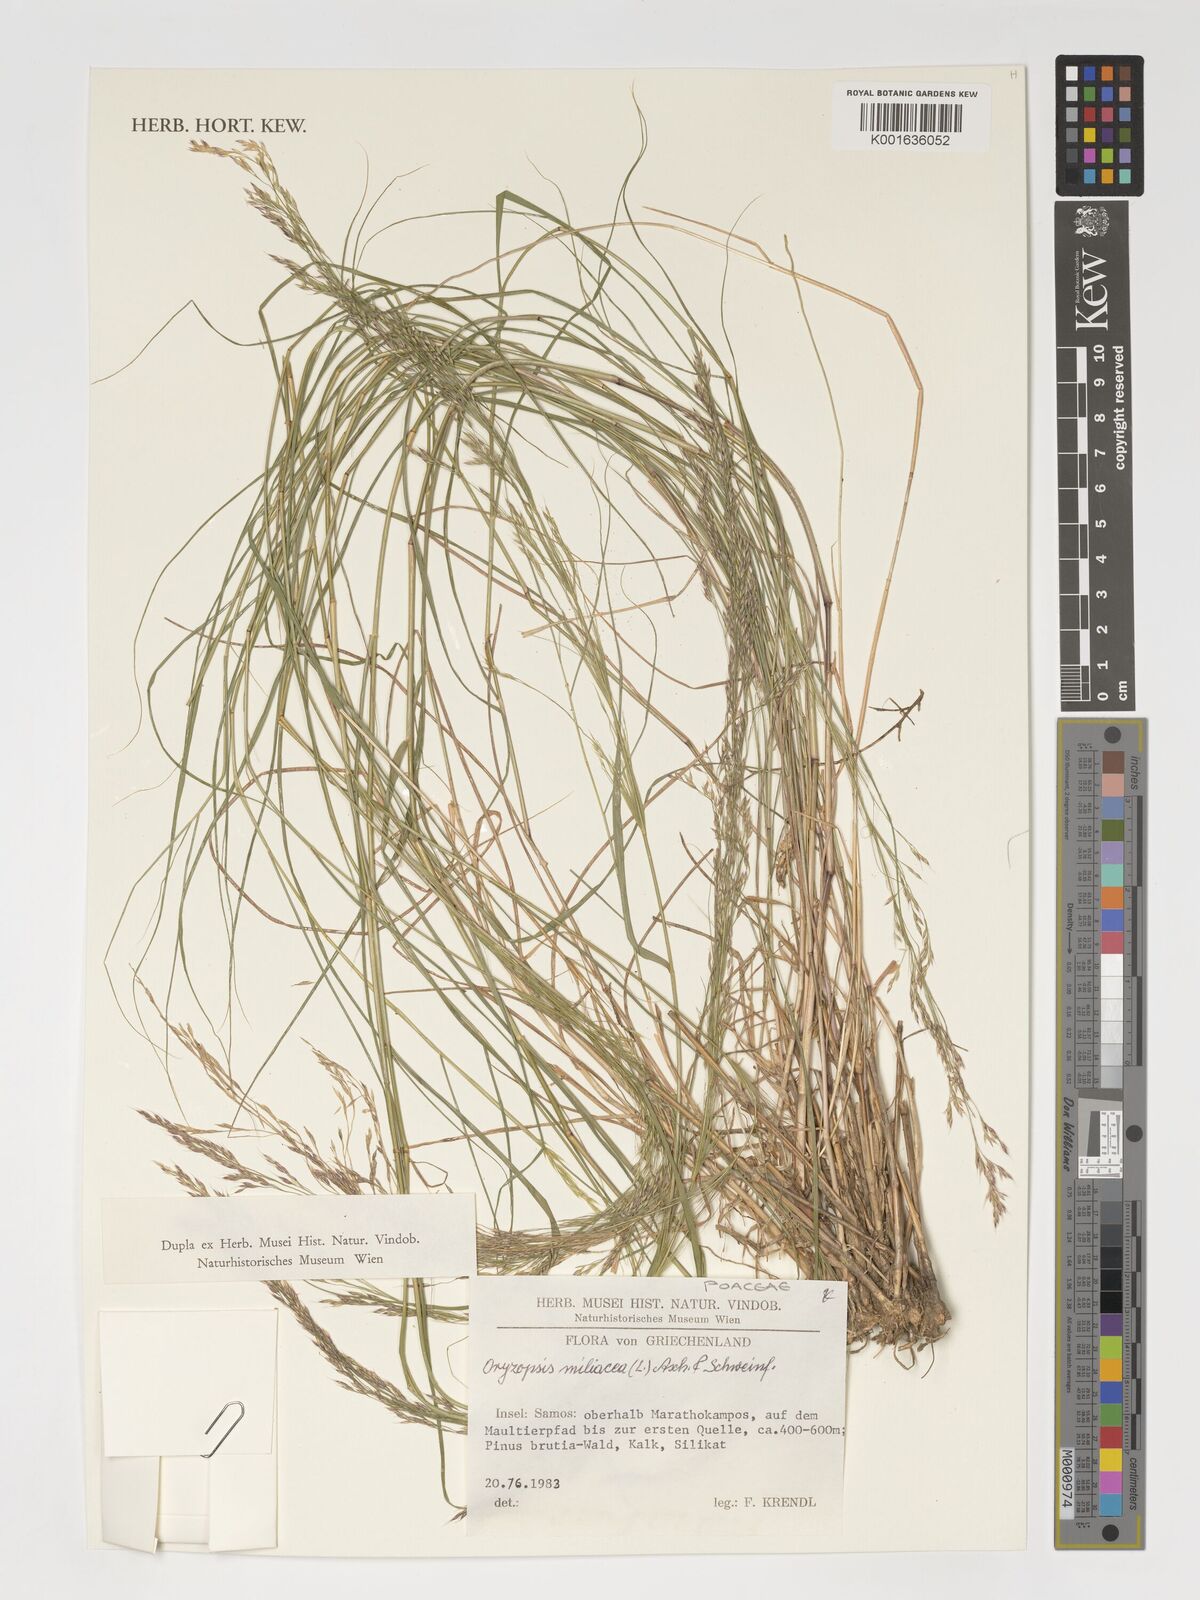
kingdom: Plantae
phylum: Tracheophyta
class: Liliopsida
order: Poales
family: Poaceae
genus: Oloptum
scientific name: Oloptum miliaceum
